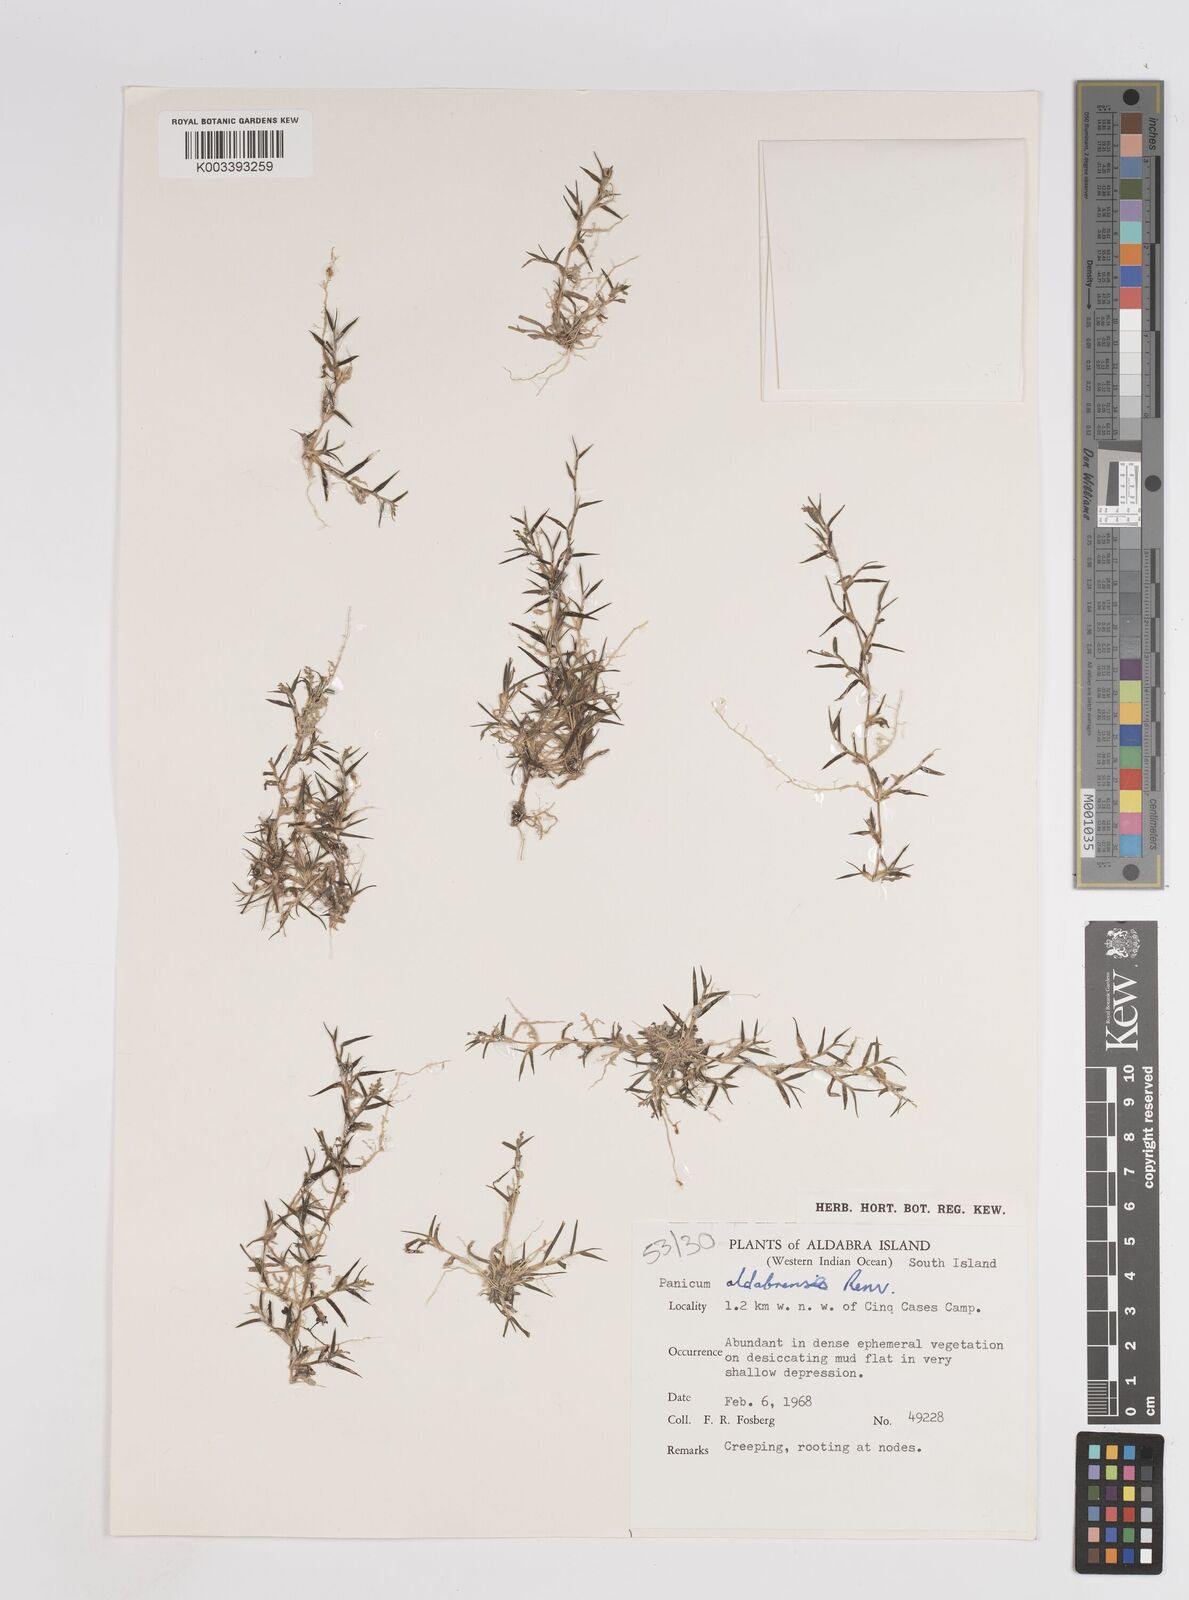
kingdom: Plantae
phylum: Tracheophyta
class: Liliopsida
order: Poales
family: Poaceae
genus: Panicum
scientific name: Panicum aldabrense
